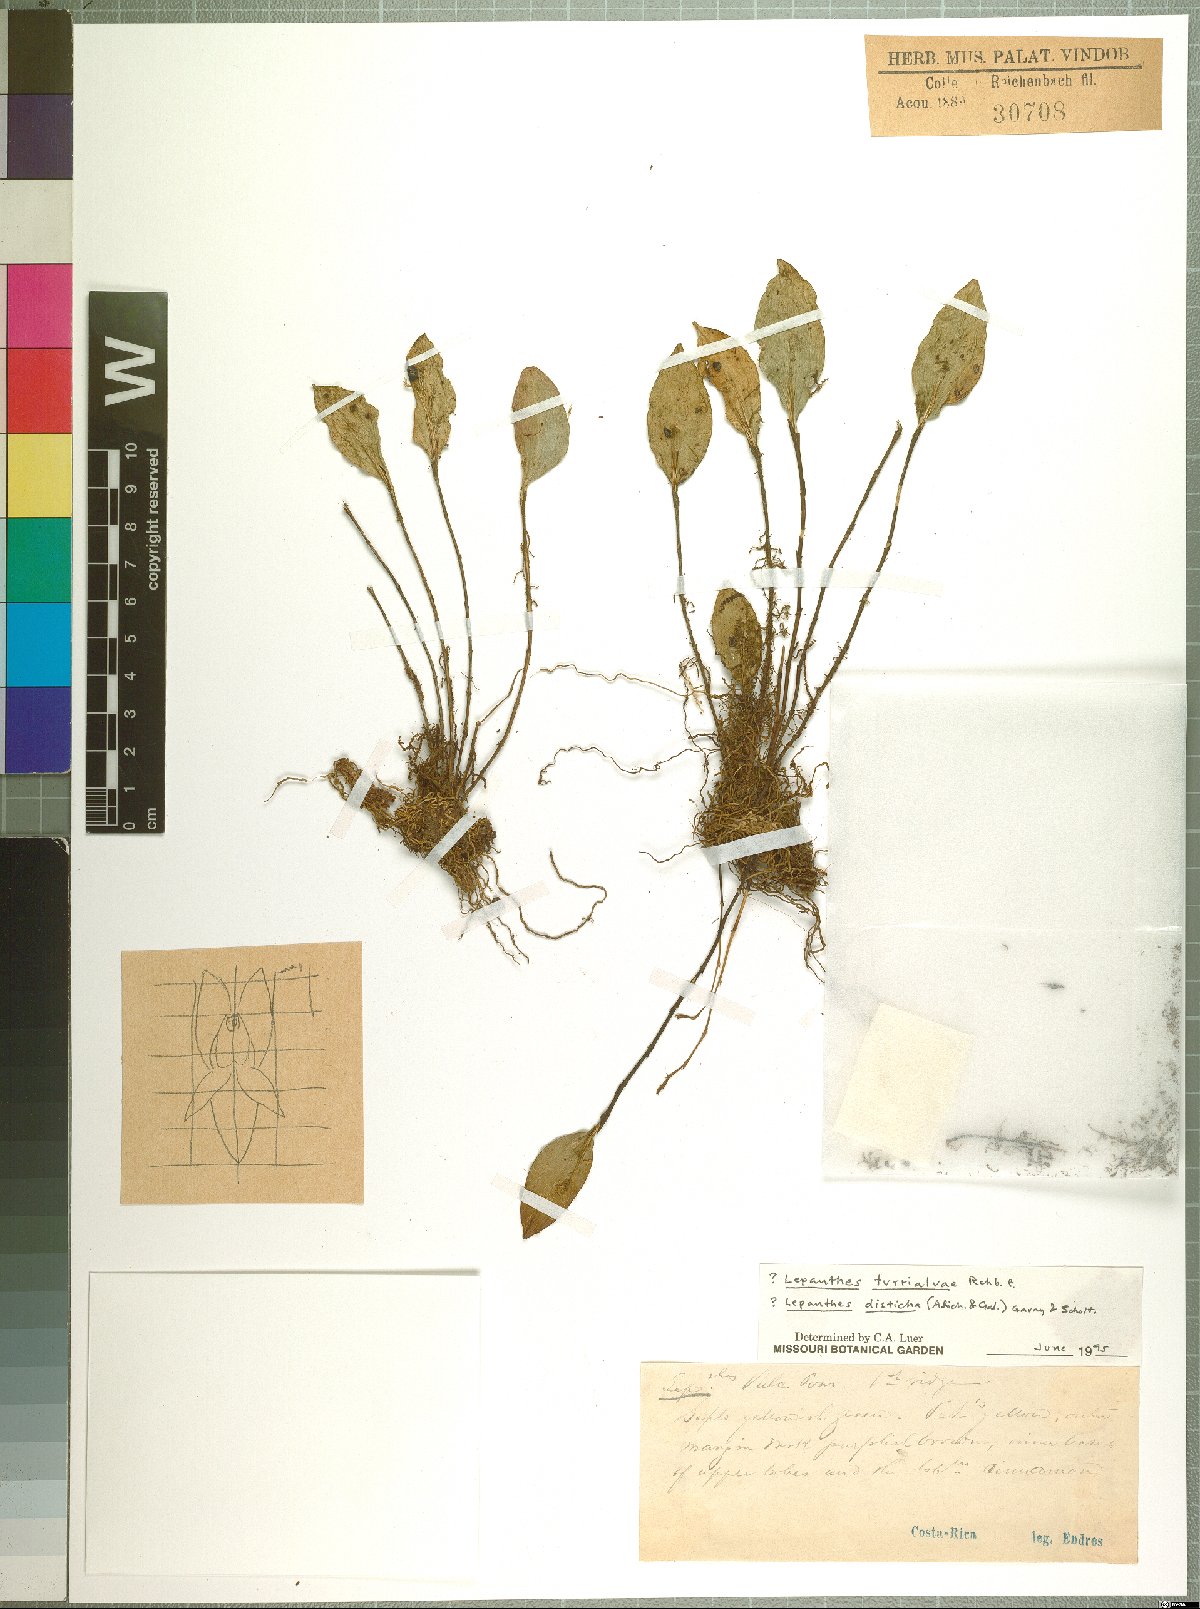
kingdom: Plantae
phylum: Tracheophyta
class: Liliopsida
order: Asparagales
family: Orchidaceae
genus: Lepanthes
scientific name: Lepanthes
